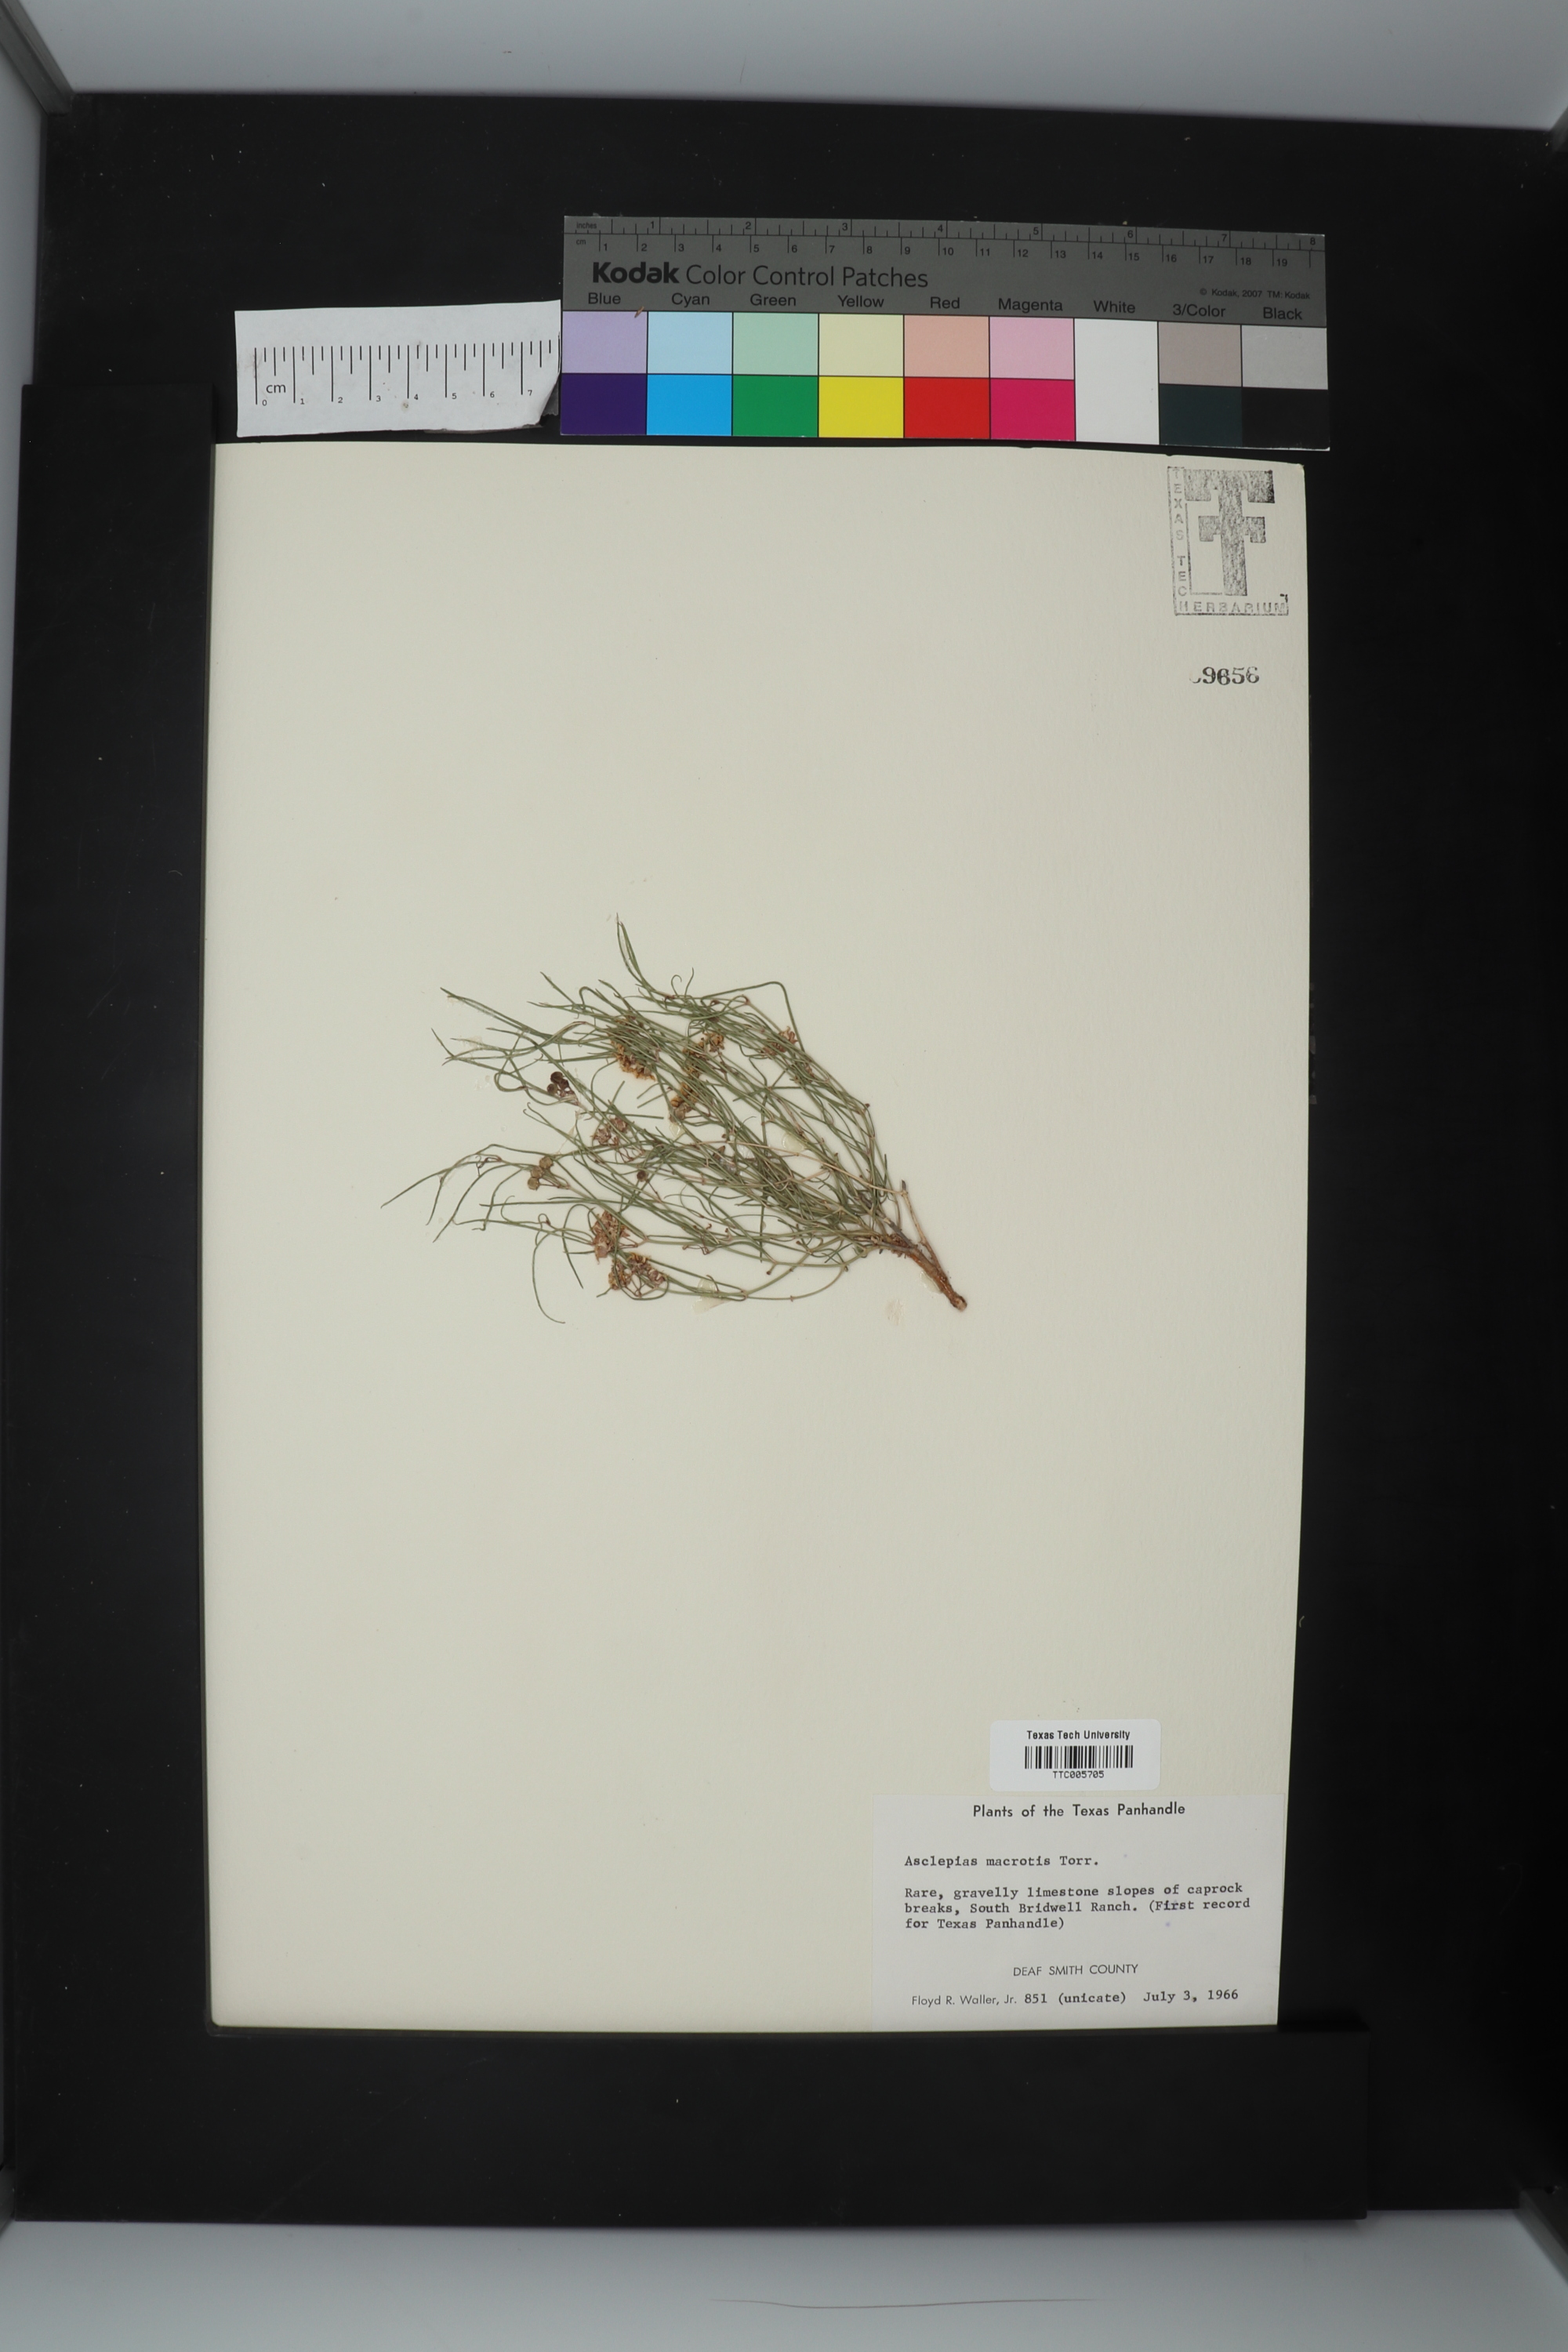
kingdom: Plantae
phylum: Tracheophyta
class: Magnoliopsida
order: Gentianales
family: Apocynaceae
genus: Asclepias
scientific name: Asclepias macrotis
